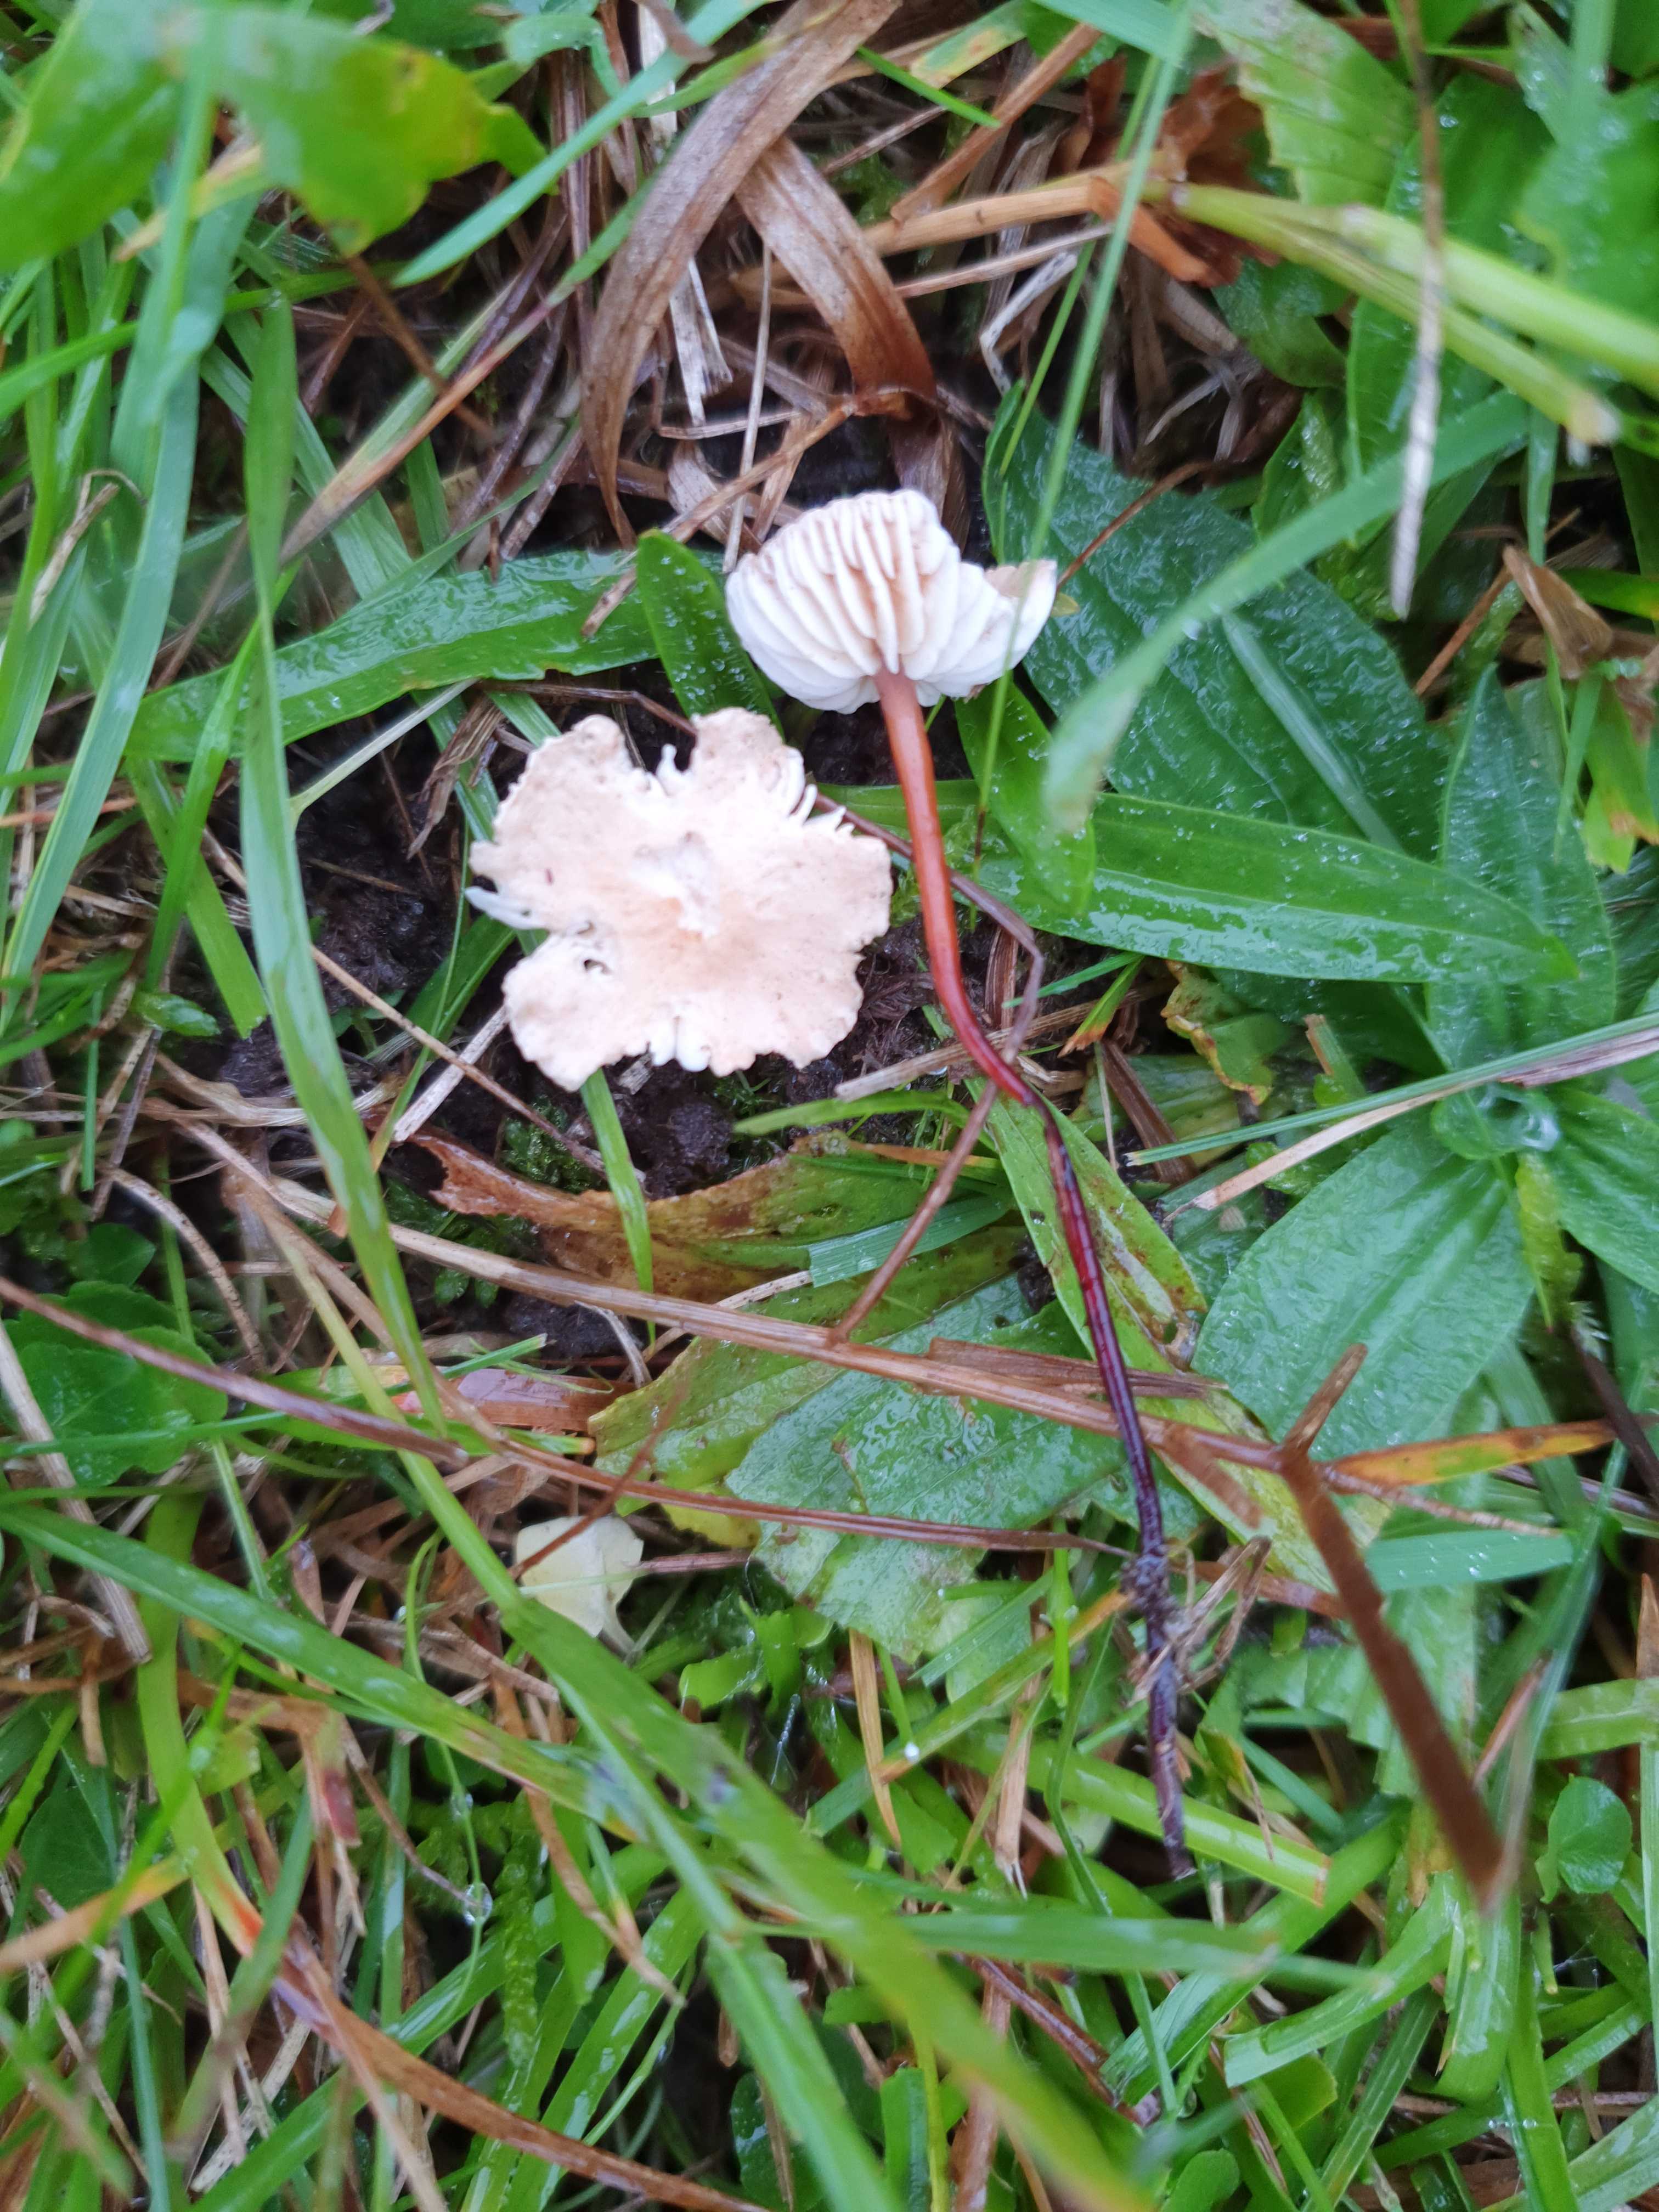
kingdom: Fungi
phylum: Basidiomycota
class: Agaricomycetes
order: Agaricales
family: Omphalotaceae
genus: Mycetinis
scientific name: Mycetinis scorodonius
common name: lille løghat
